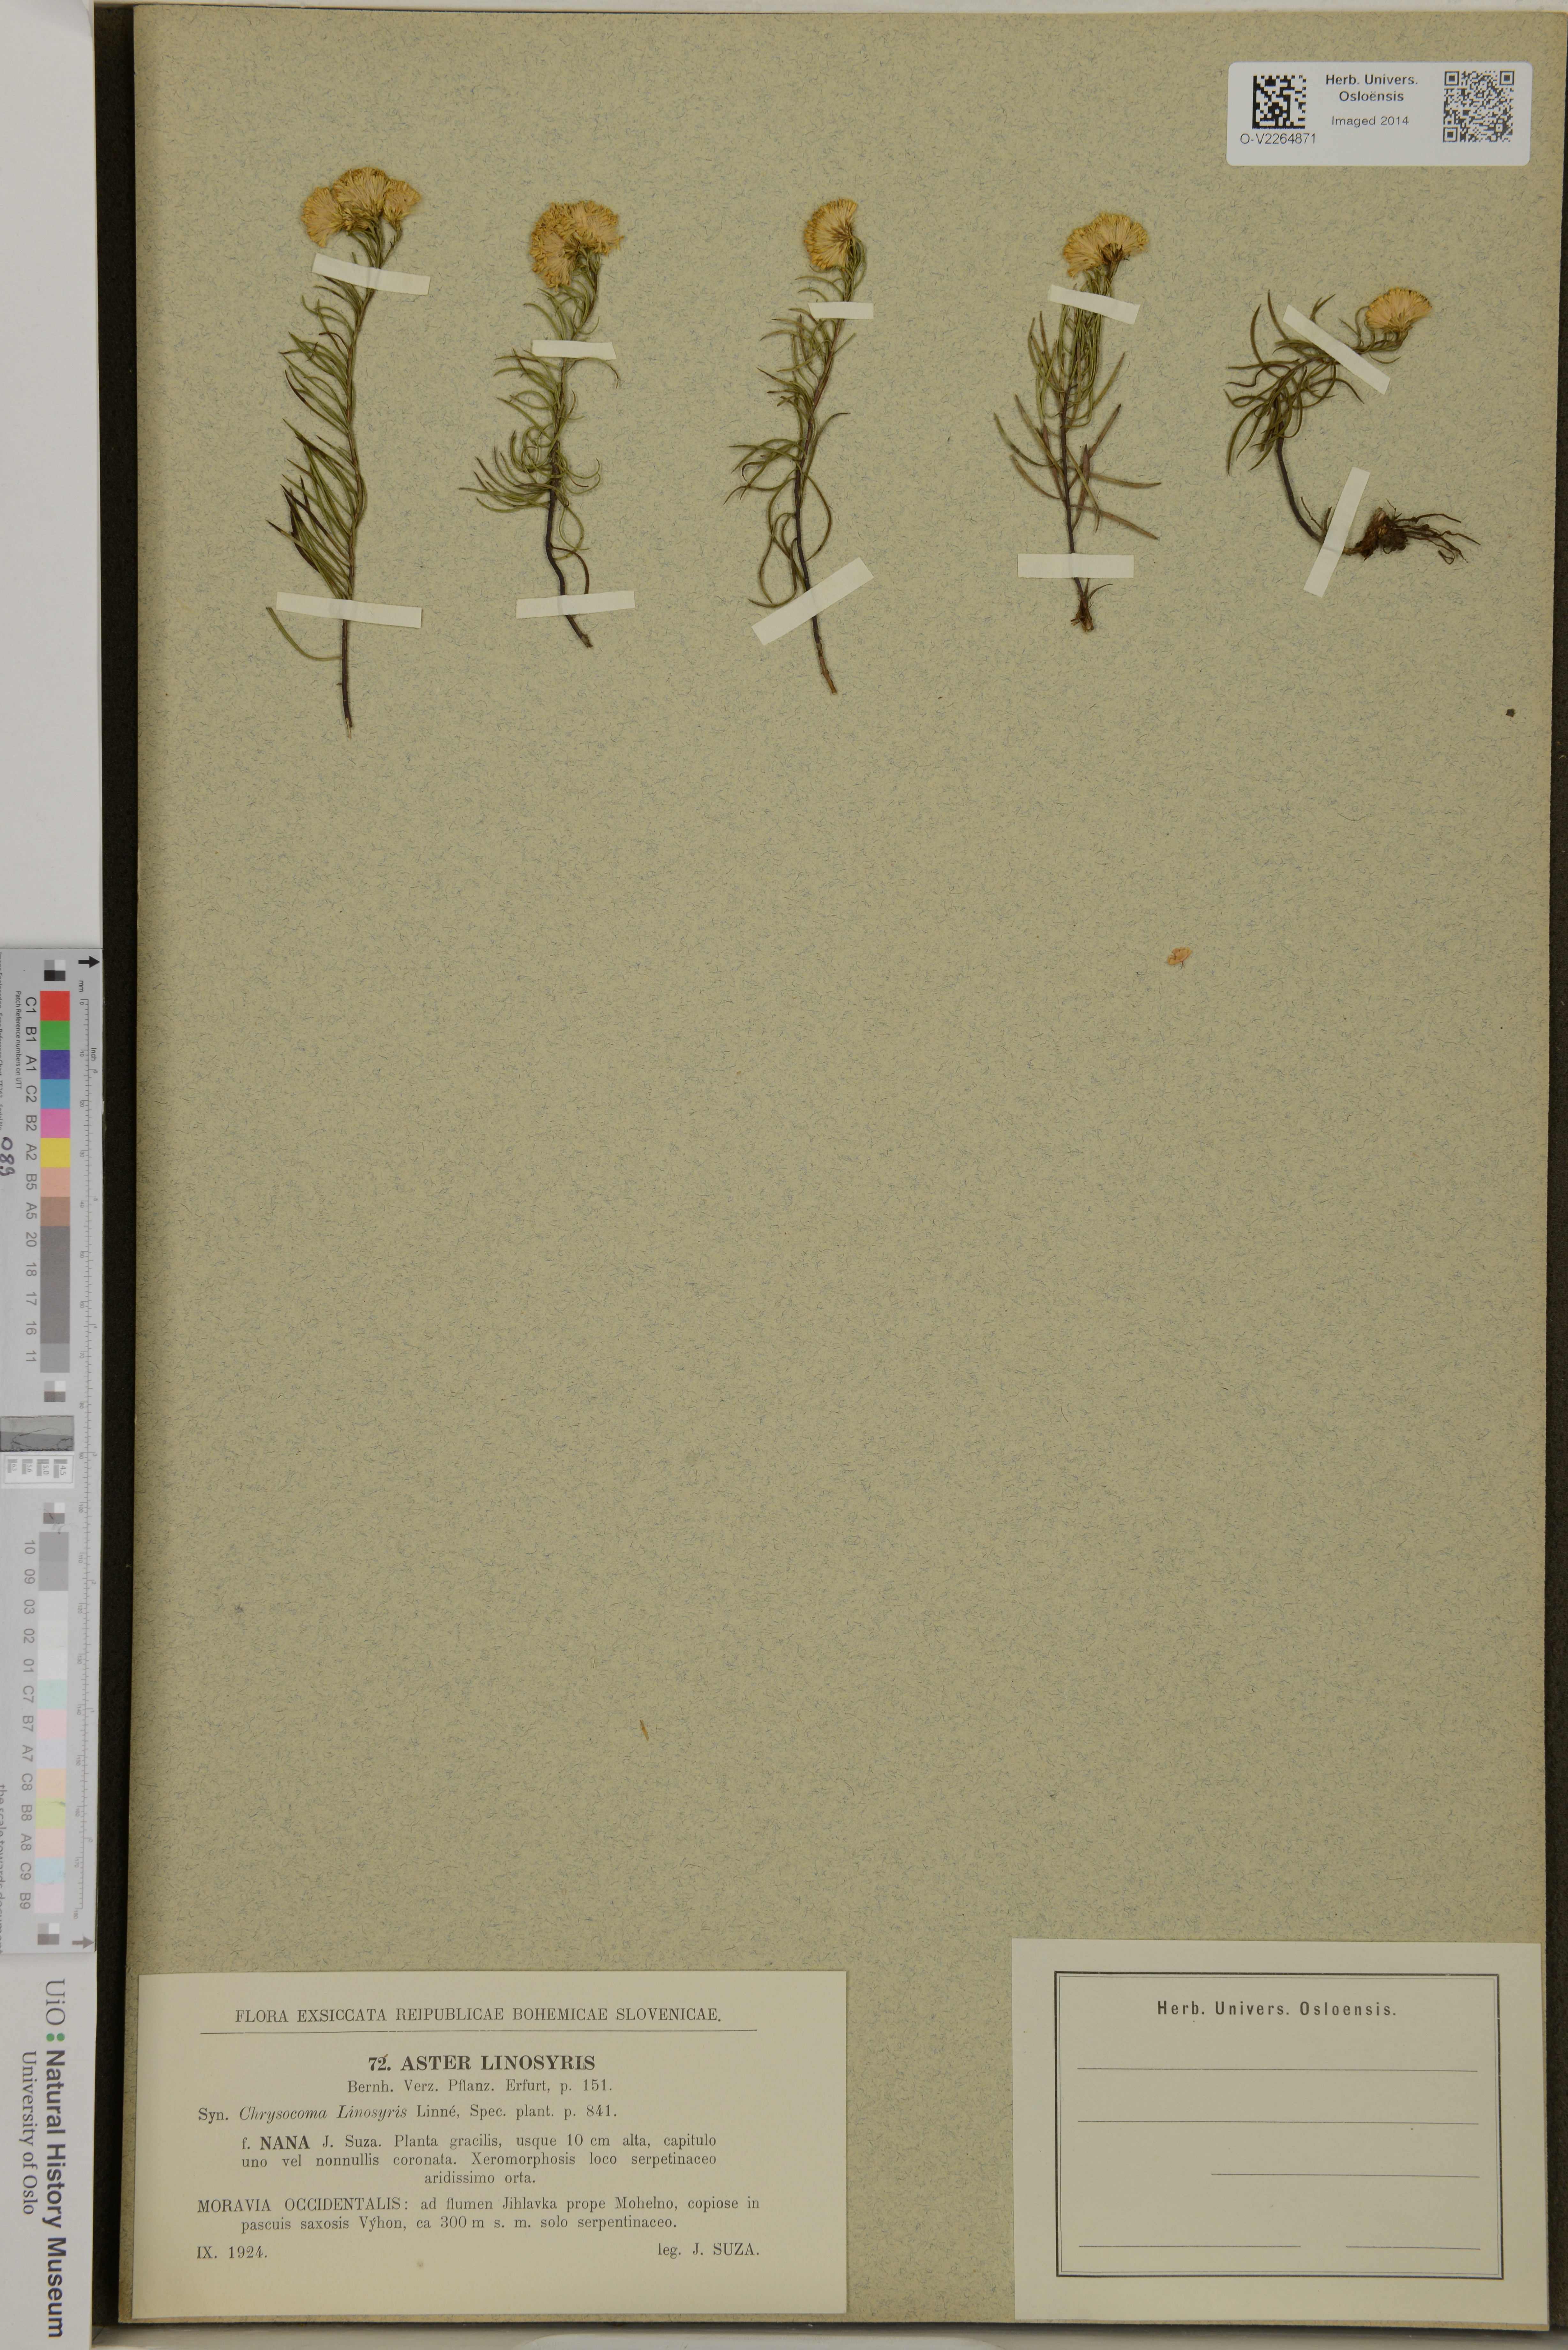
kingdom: Plantae
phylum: Tracheophyta
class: Magnoliopsida
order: Asterales
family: Asteraceae
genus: Galatella
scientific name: Galatella linosyris
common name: Goldilocks aster
